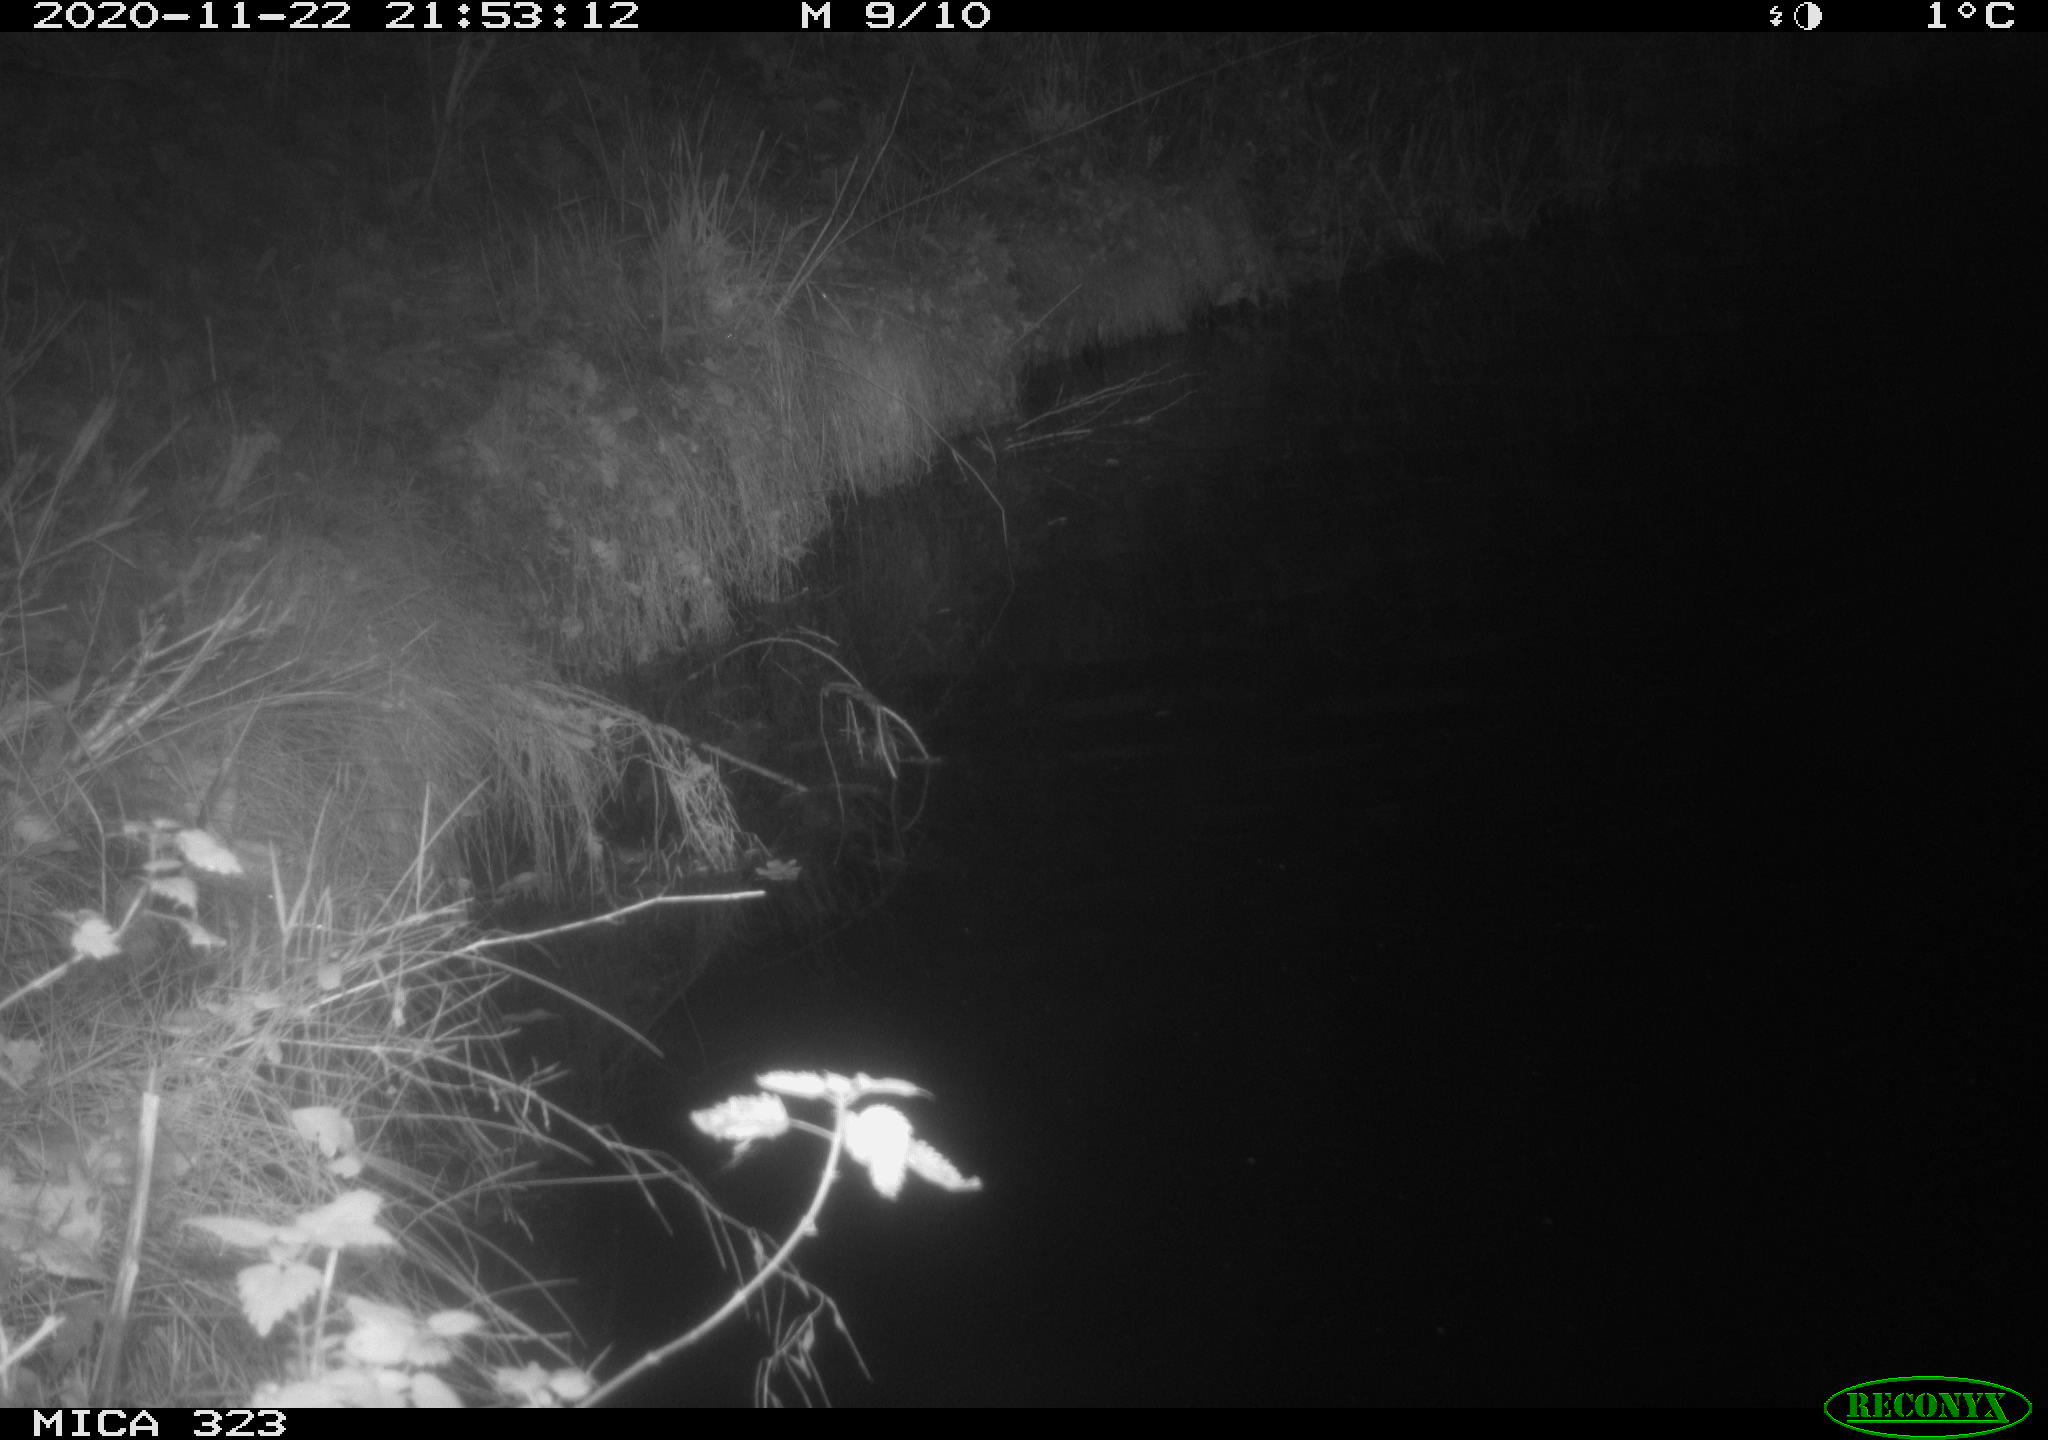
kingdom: Animalia
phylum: Chordata
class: Mammalia
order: Rodentia
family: Myocastoridae
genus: Myocastor
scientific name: Myocastor coypus
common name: Coypu
